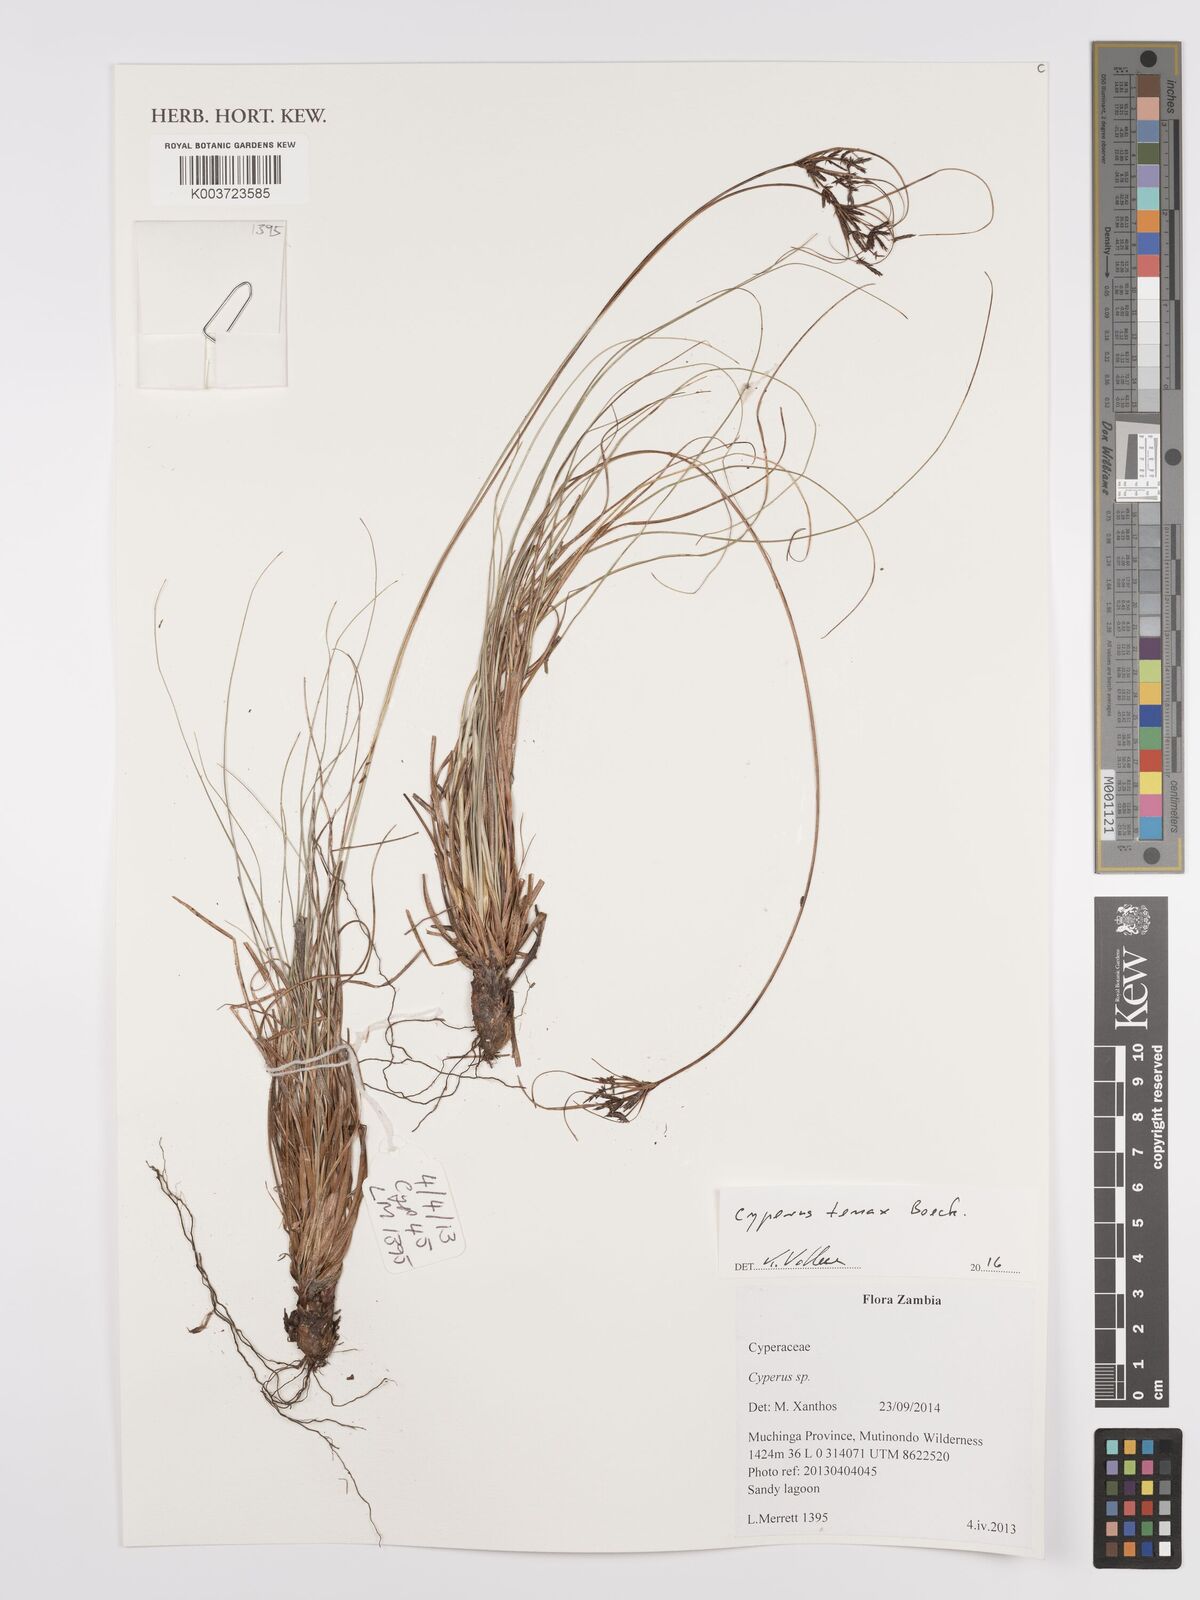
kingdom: Plantae
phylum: Tracheophyta
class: Liliopsida
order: Poales
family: Cyperaceae
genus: Cyperus
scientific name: Cyperus tenax
